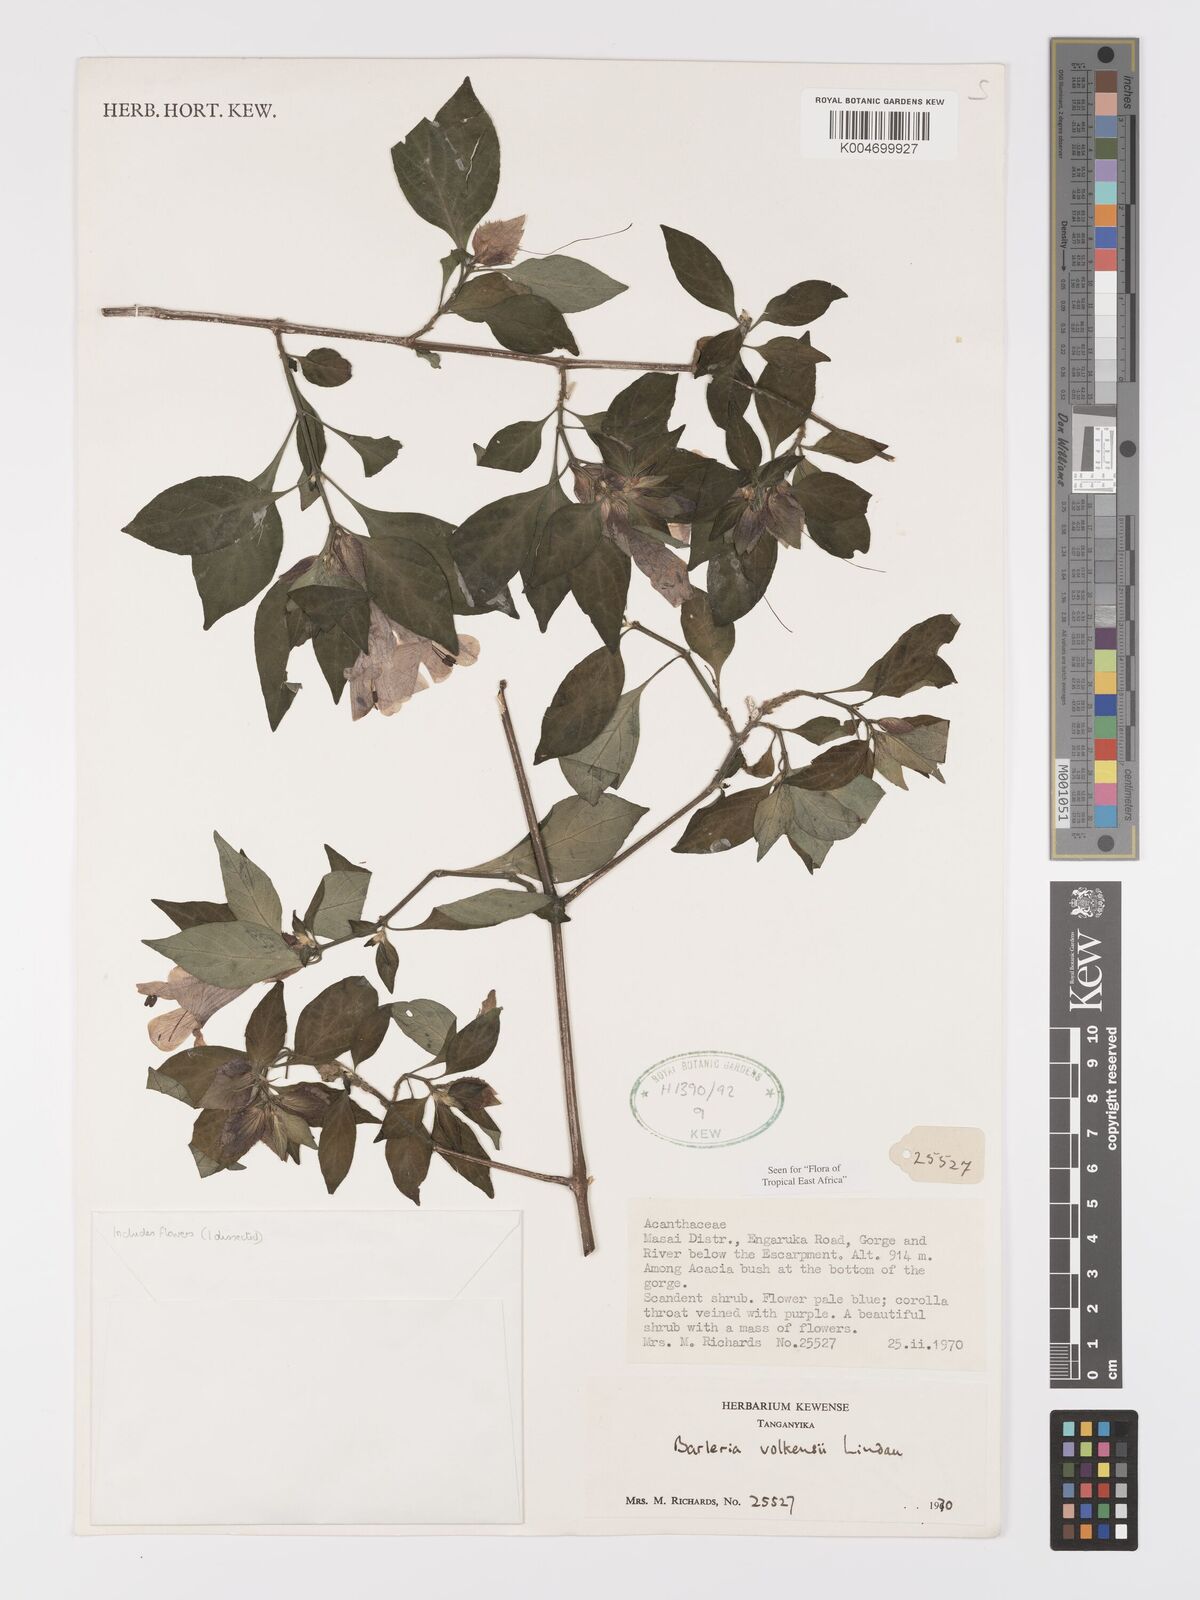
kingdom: Plantae
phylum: Tracheophyta
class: Magnoliopsida
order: Lamiales
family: Acanthaceae
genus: Barleria
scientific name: Barleria volkensii
